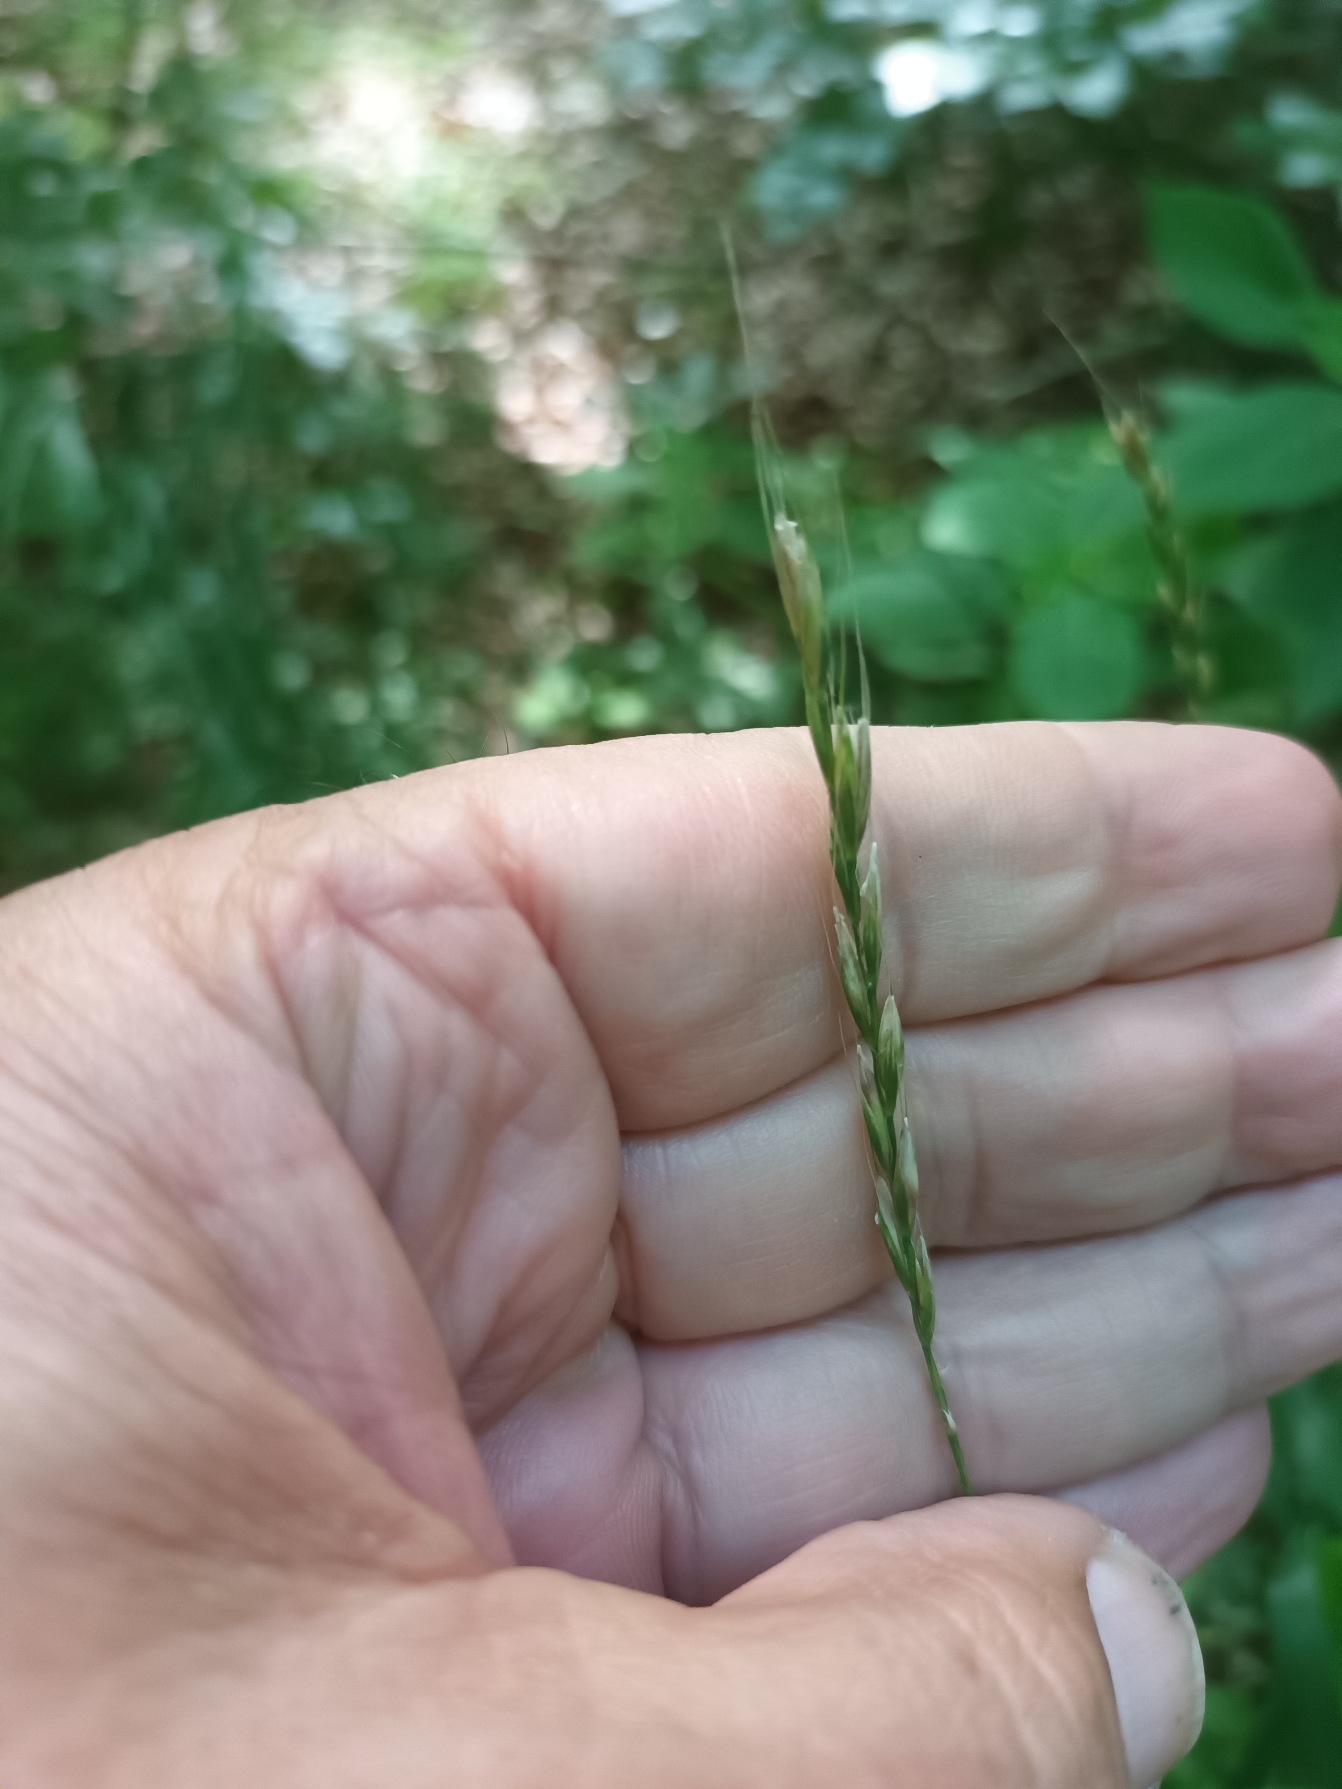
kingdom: Plantae
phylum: Tracheophyta
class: Liliopsida
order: Poales
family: Poaceae
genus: Elymus
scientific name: Elymus caninus
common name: Hundekvik
